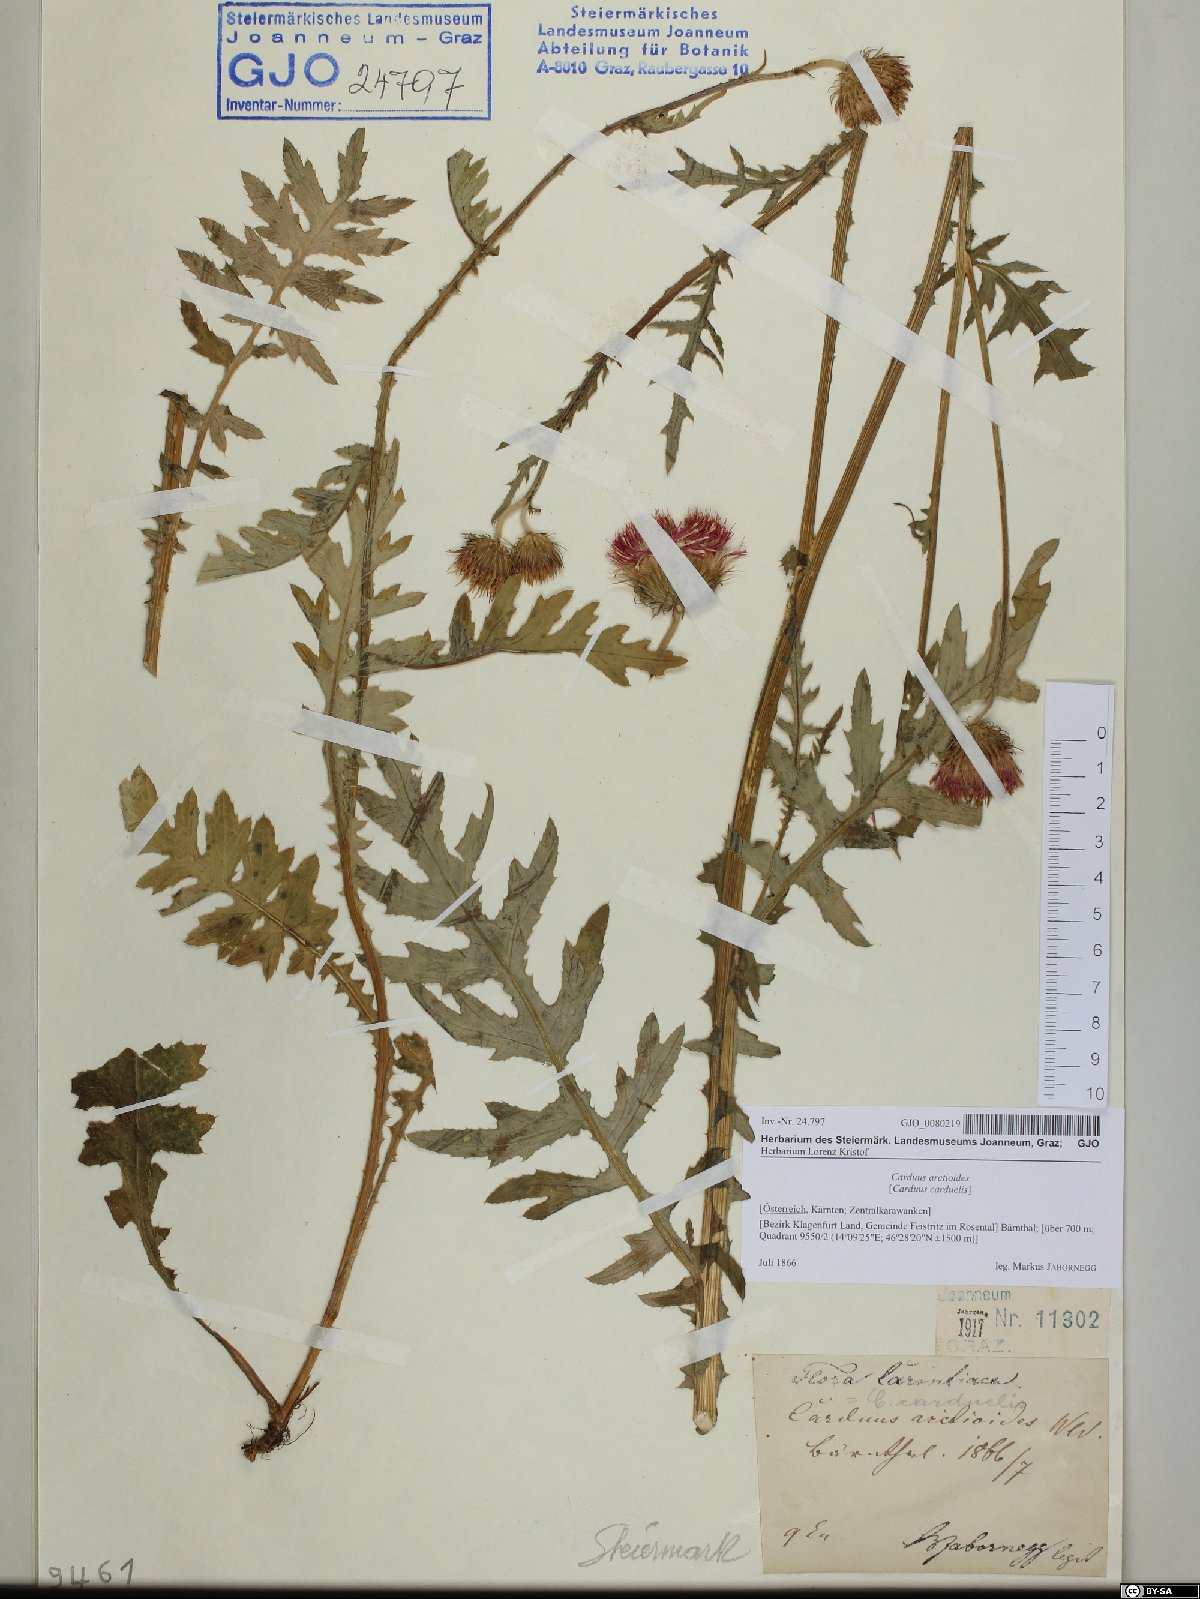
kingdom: Plantae
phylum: Tracheophyta
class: Magnoliopsida
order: Asterales
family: Asteraceae
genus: Carduus
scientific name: Carduus carduelis
